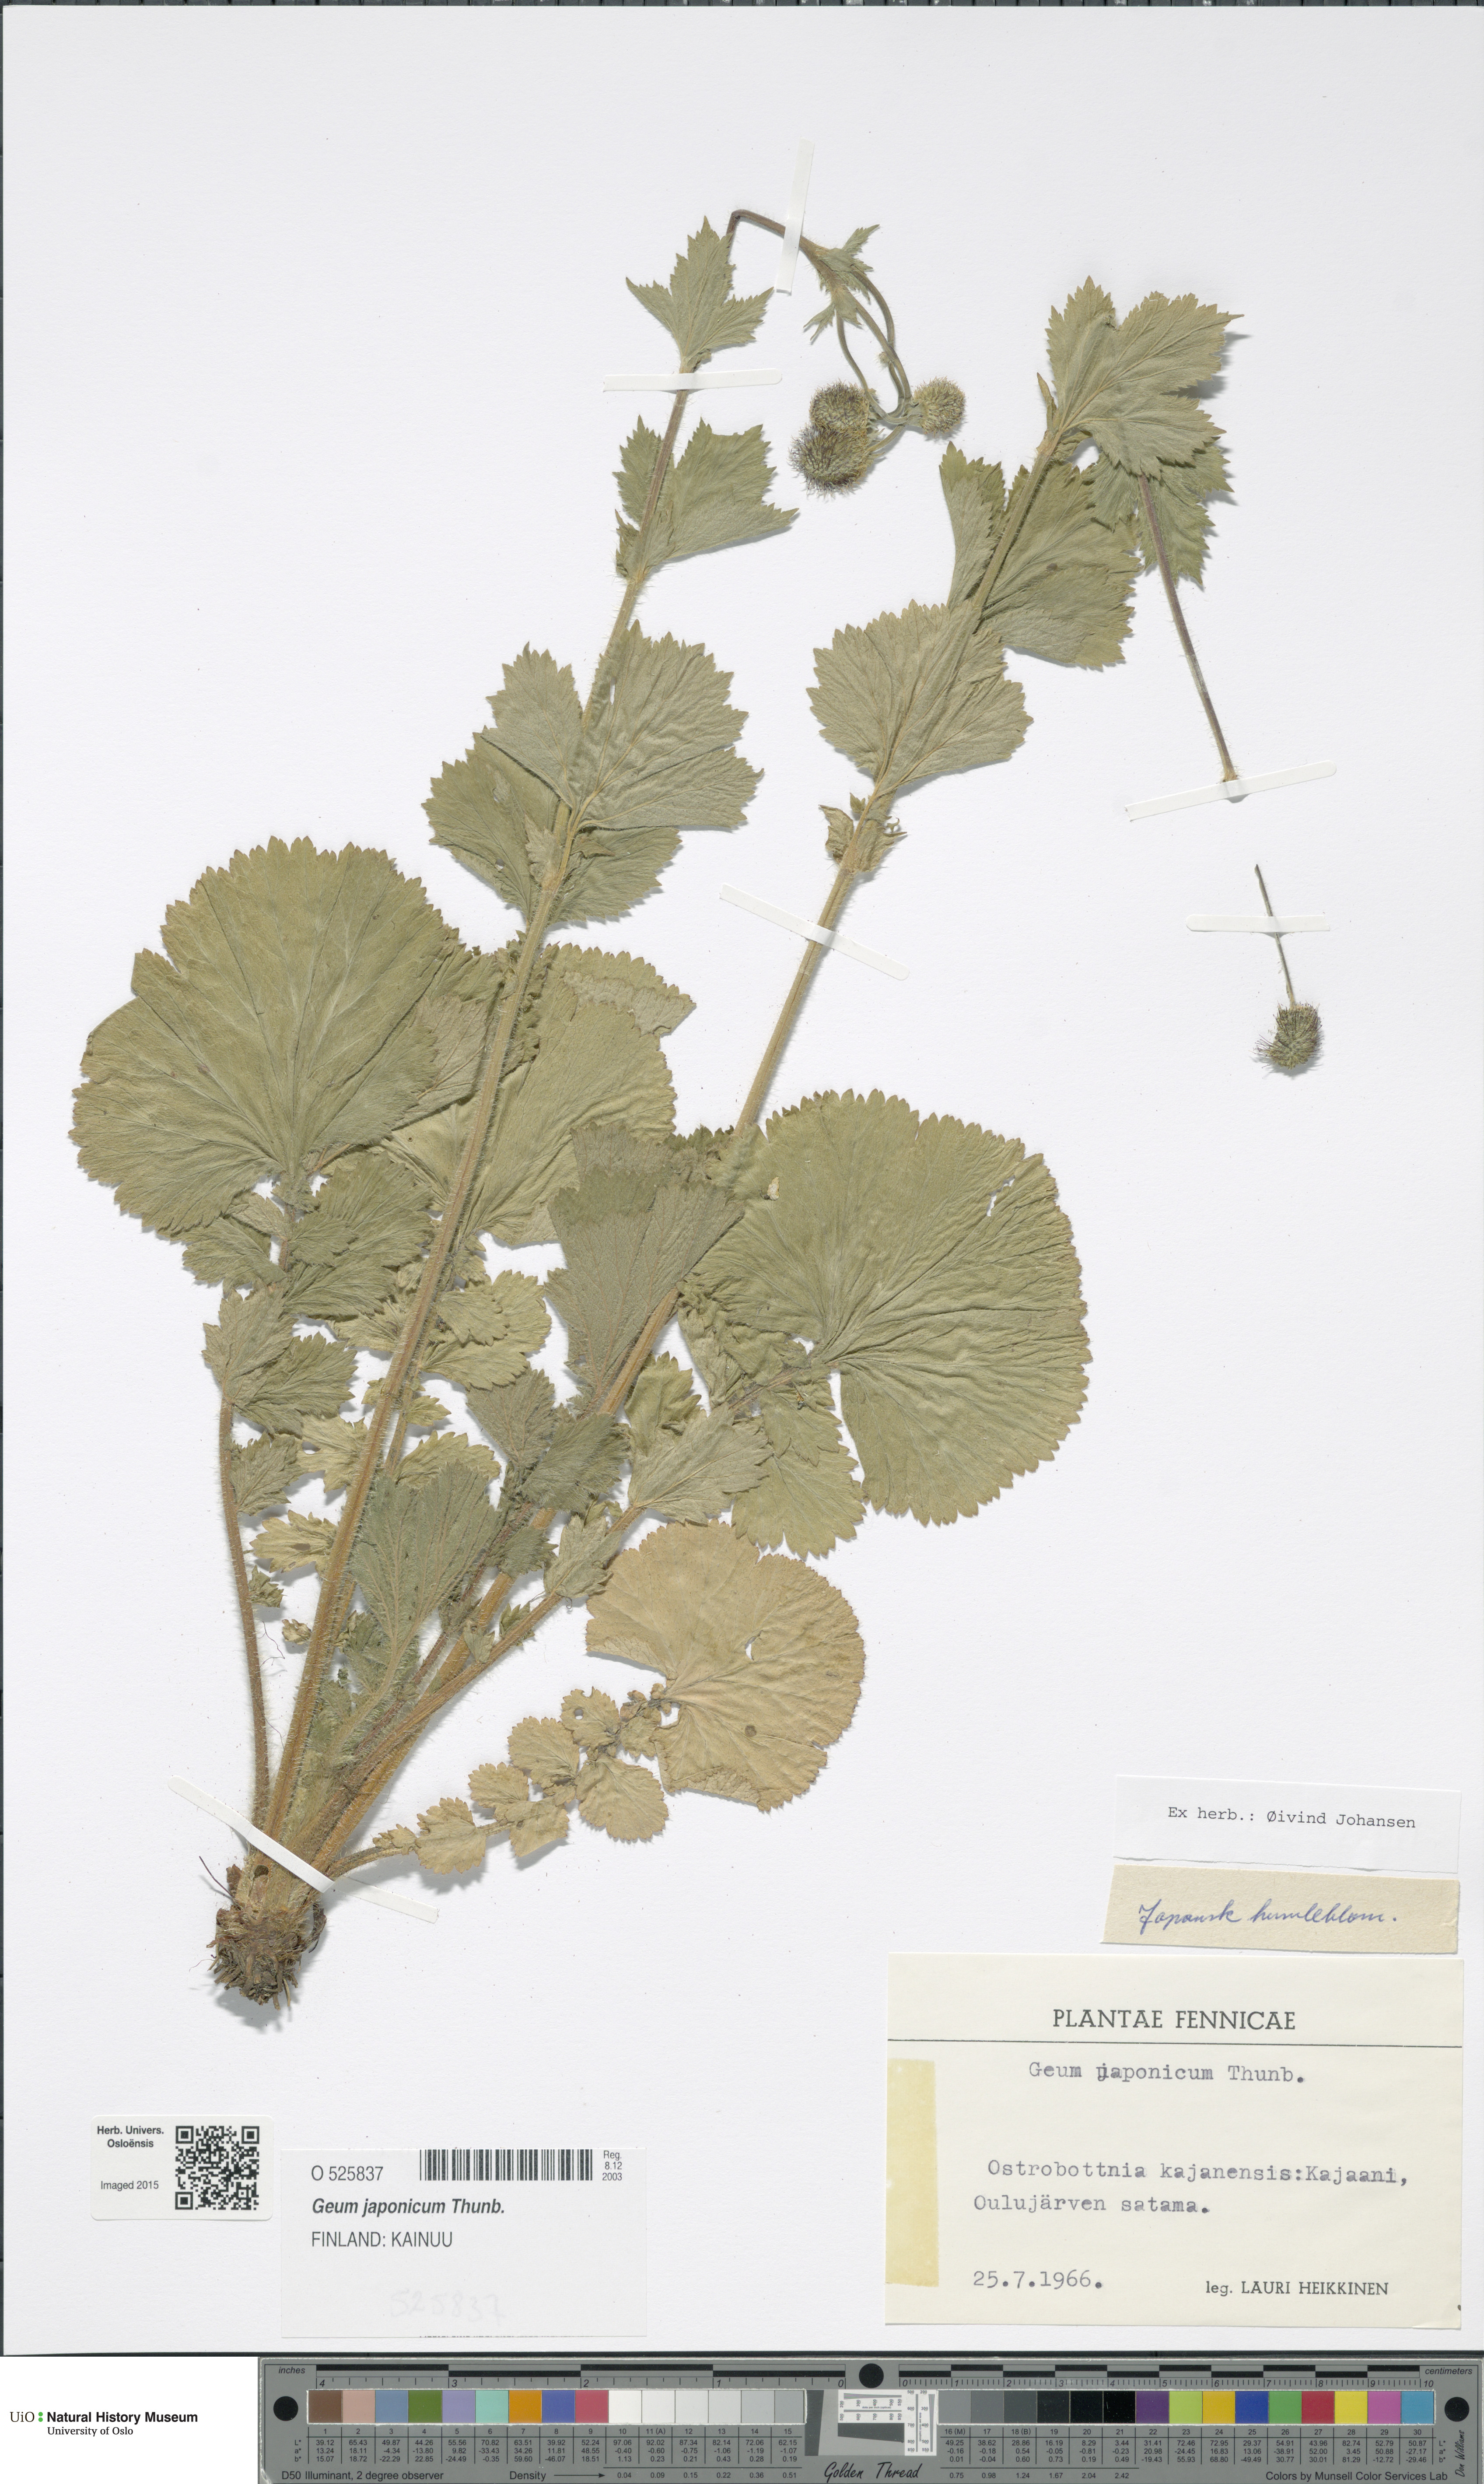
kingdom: Plantae
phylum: Tracheophyta
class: Magnoliopsida
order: Rosales
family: Rosaceae
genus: Geum
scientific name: Geum japonicum
